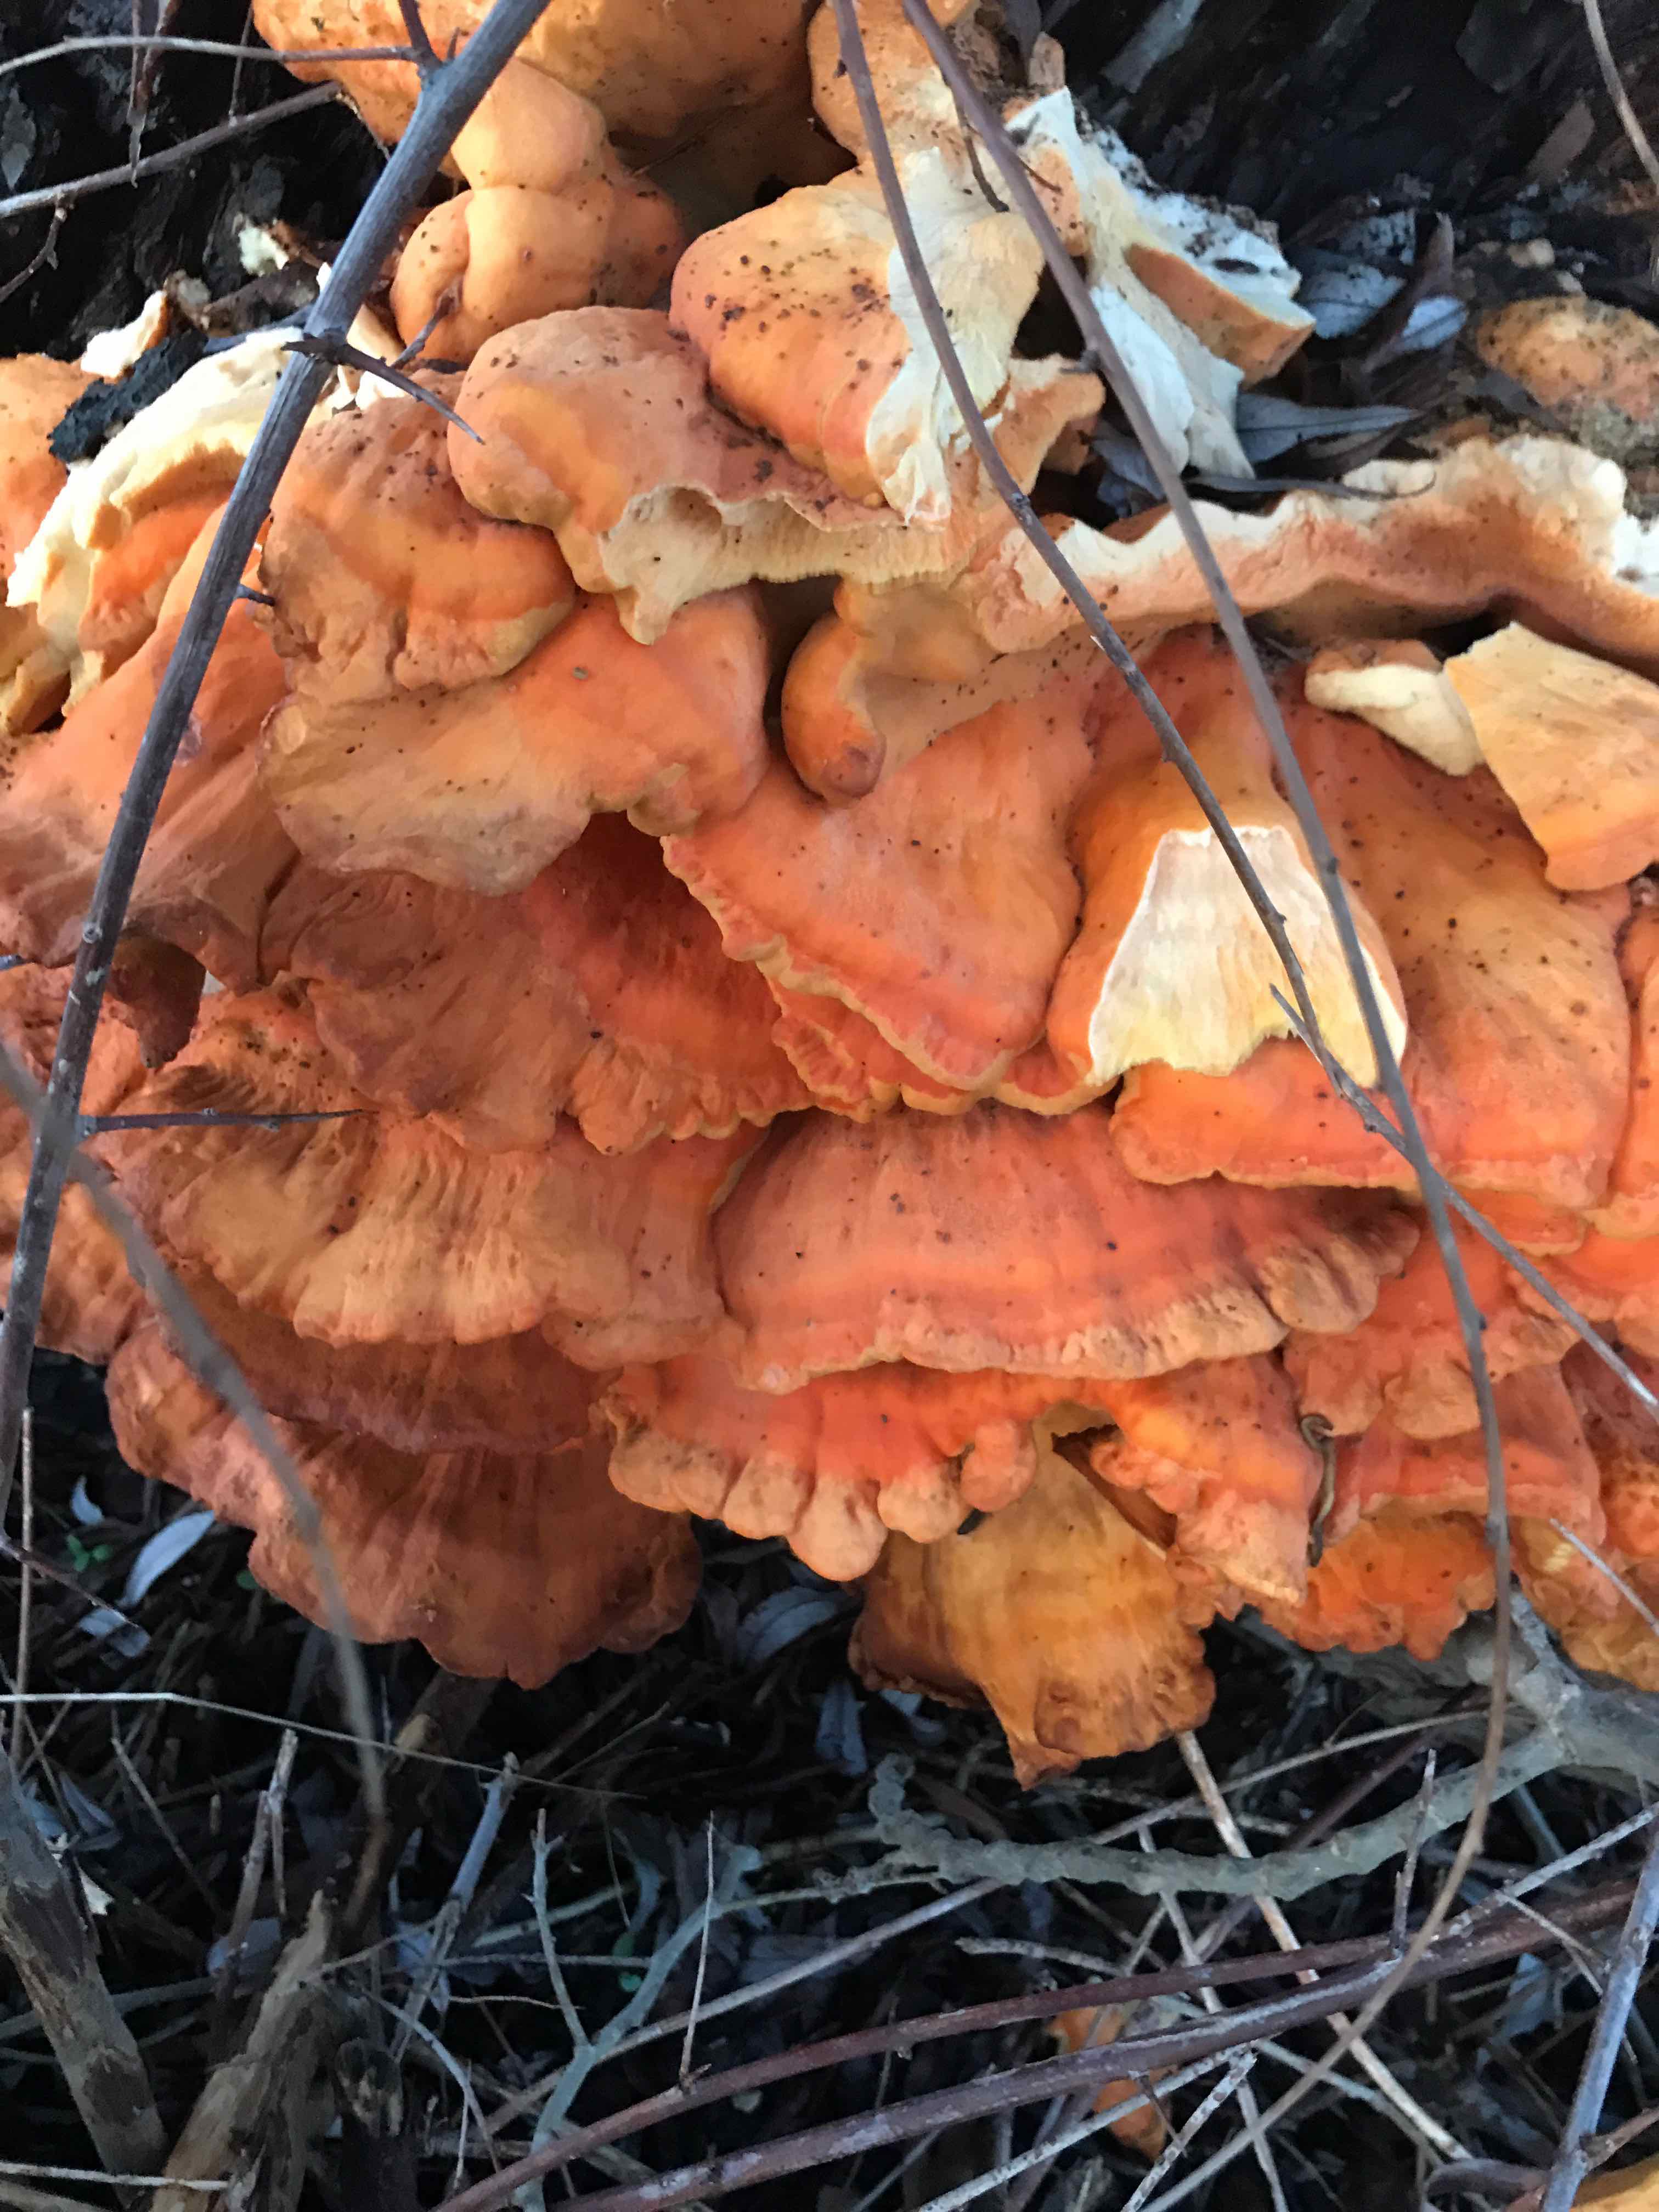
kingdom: Fungi
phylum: Basidiomycota
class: Agaricomycetes
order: Polyporales
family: Laetiporaceae
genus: Laetiporus
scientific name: Laetiporus sulphureus
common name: svovlporesvamp
